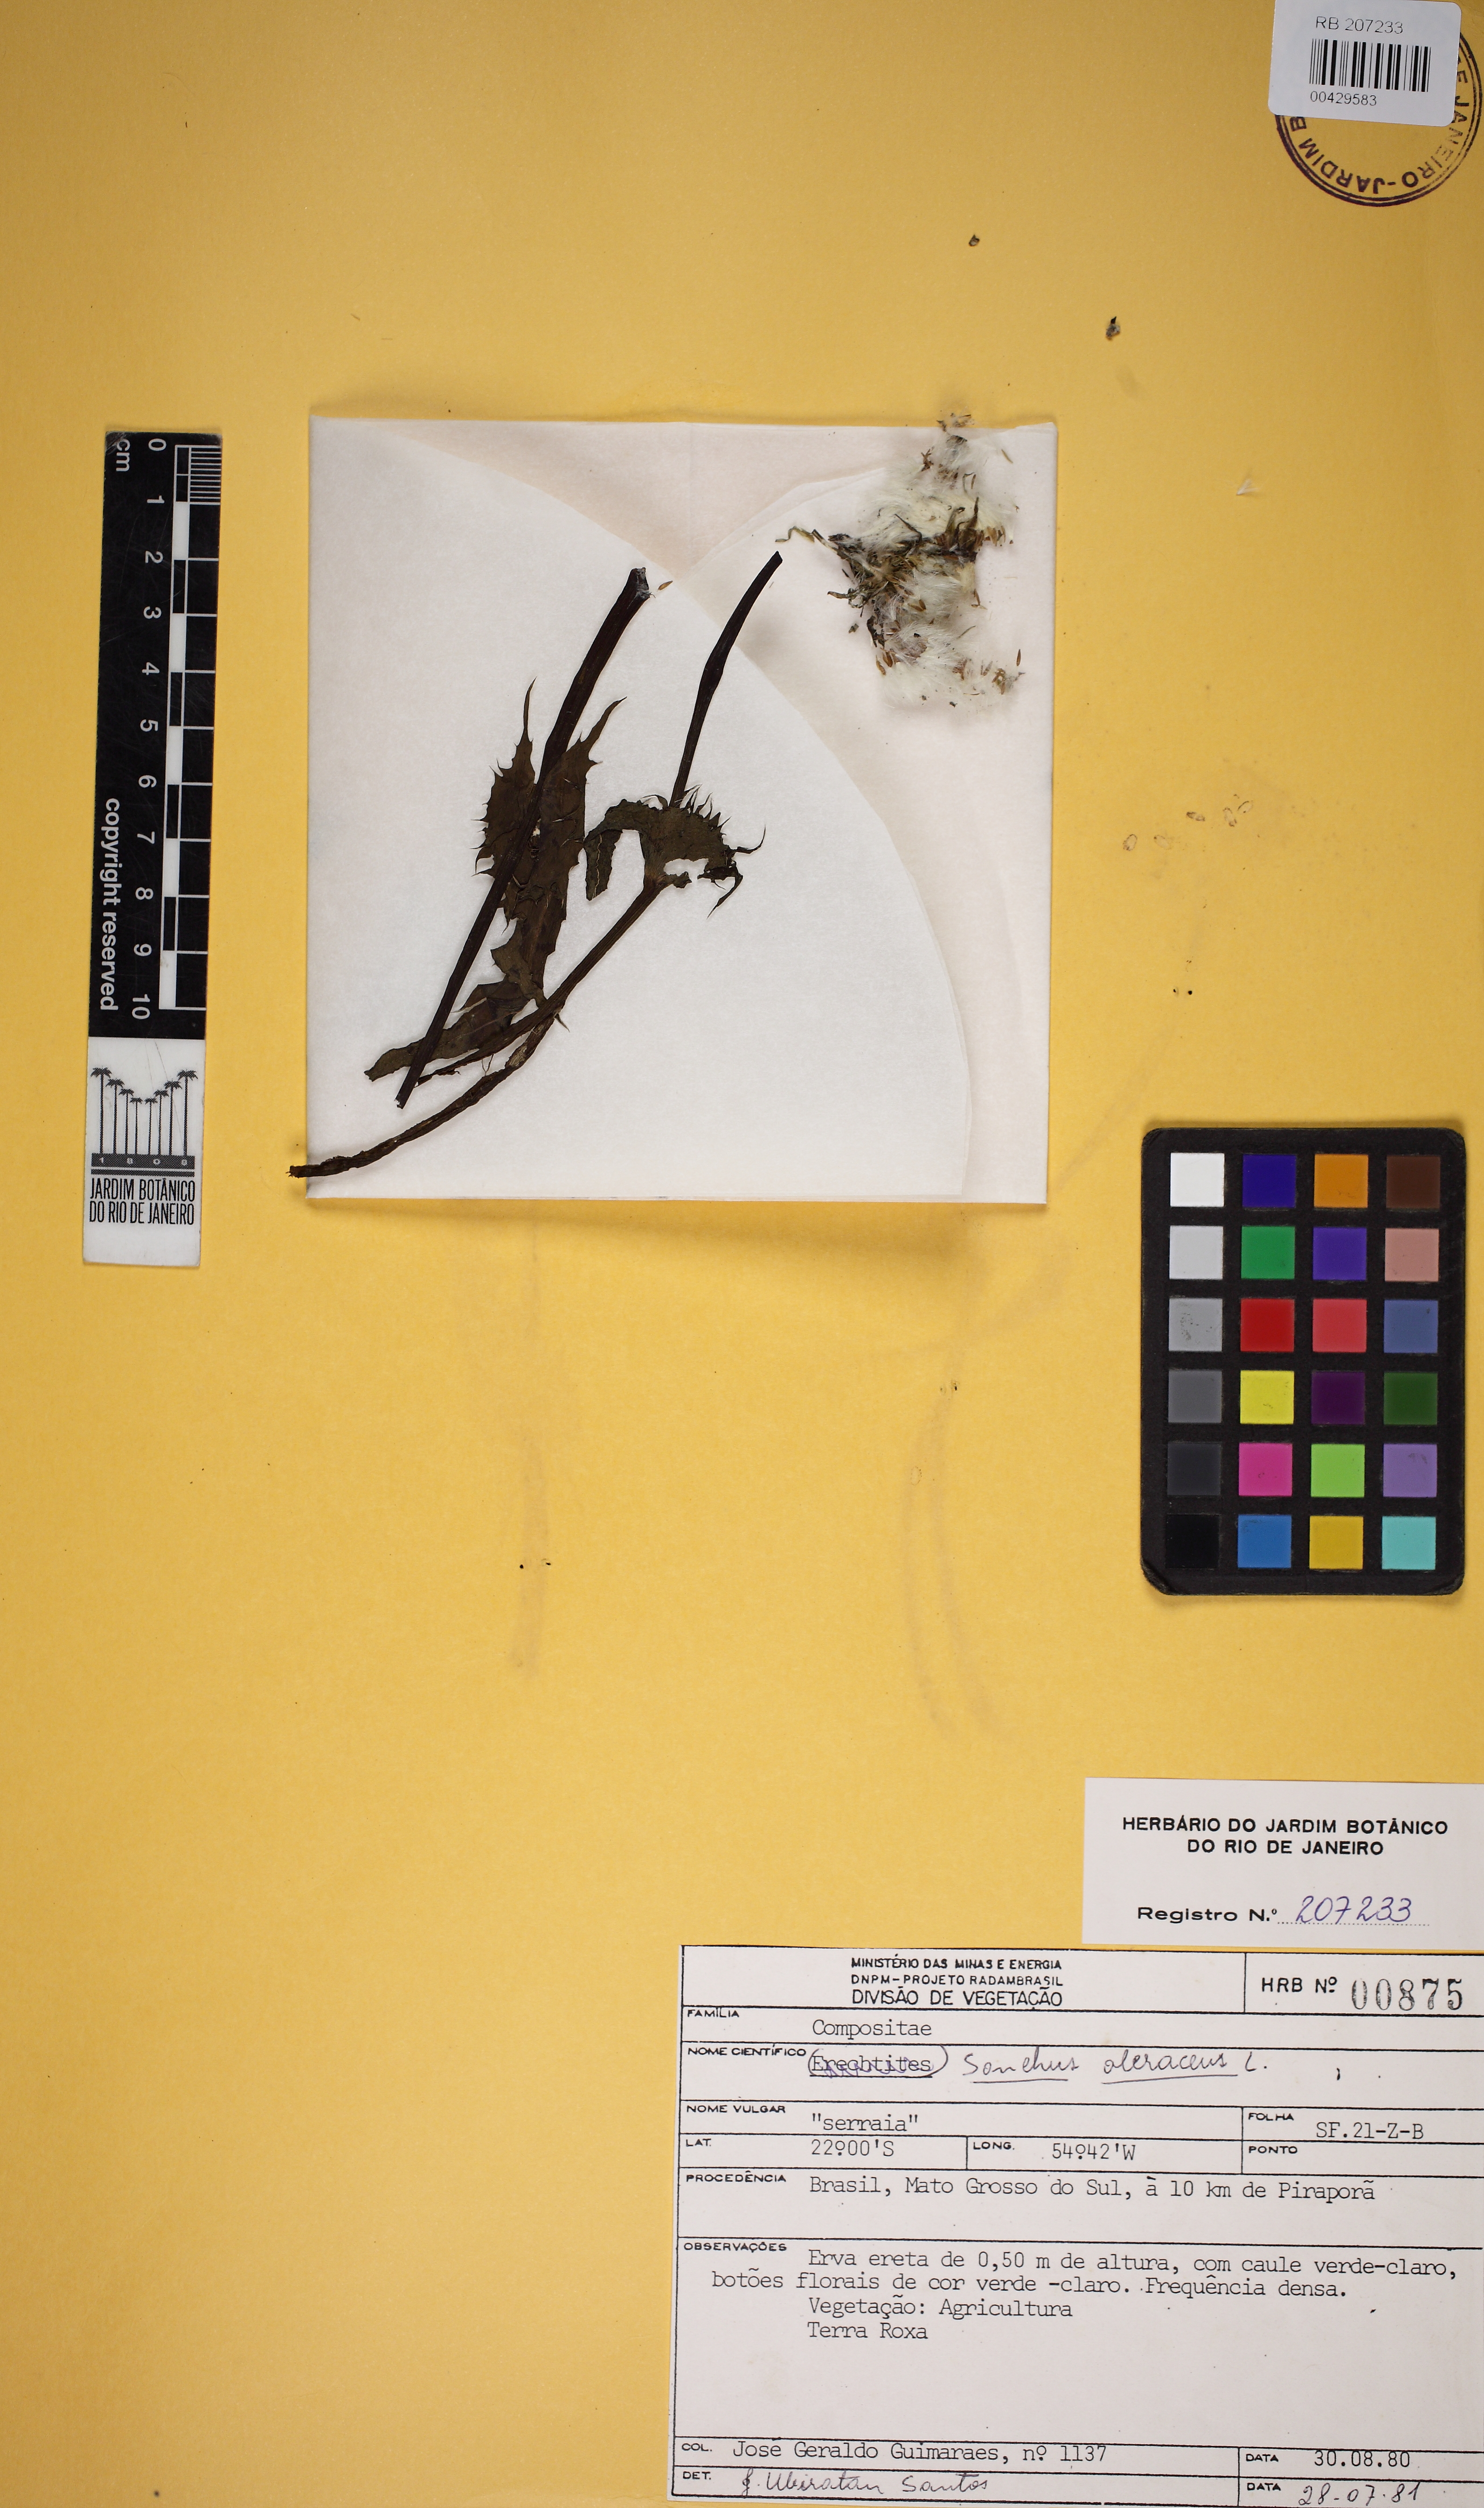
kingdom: Plantae
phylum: Tracheophyta
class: Magnoliopsida
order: Asterales
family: Asteraceae
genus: Sonchus
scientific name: Sonchus oleraceus
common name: Common sowthistle
